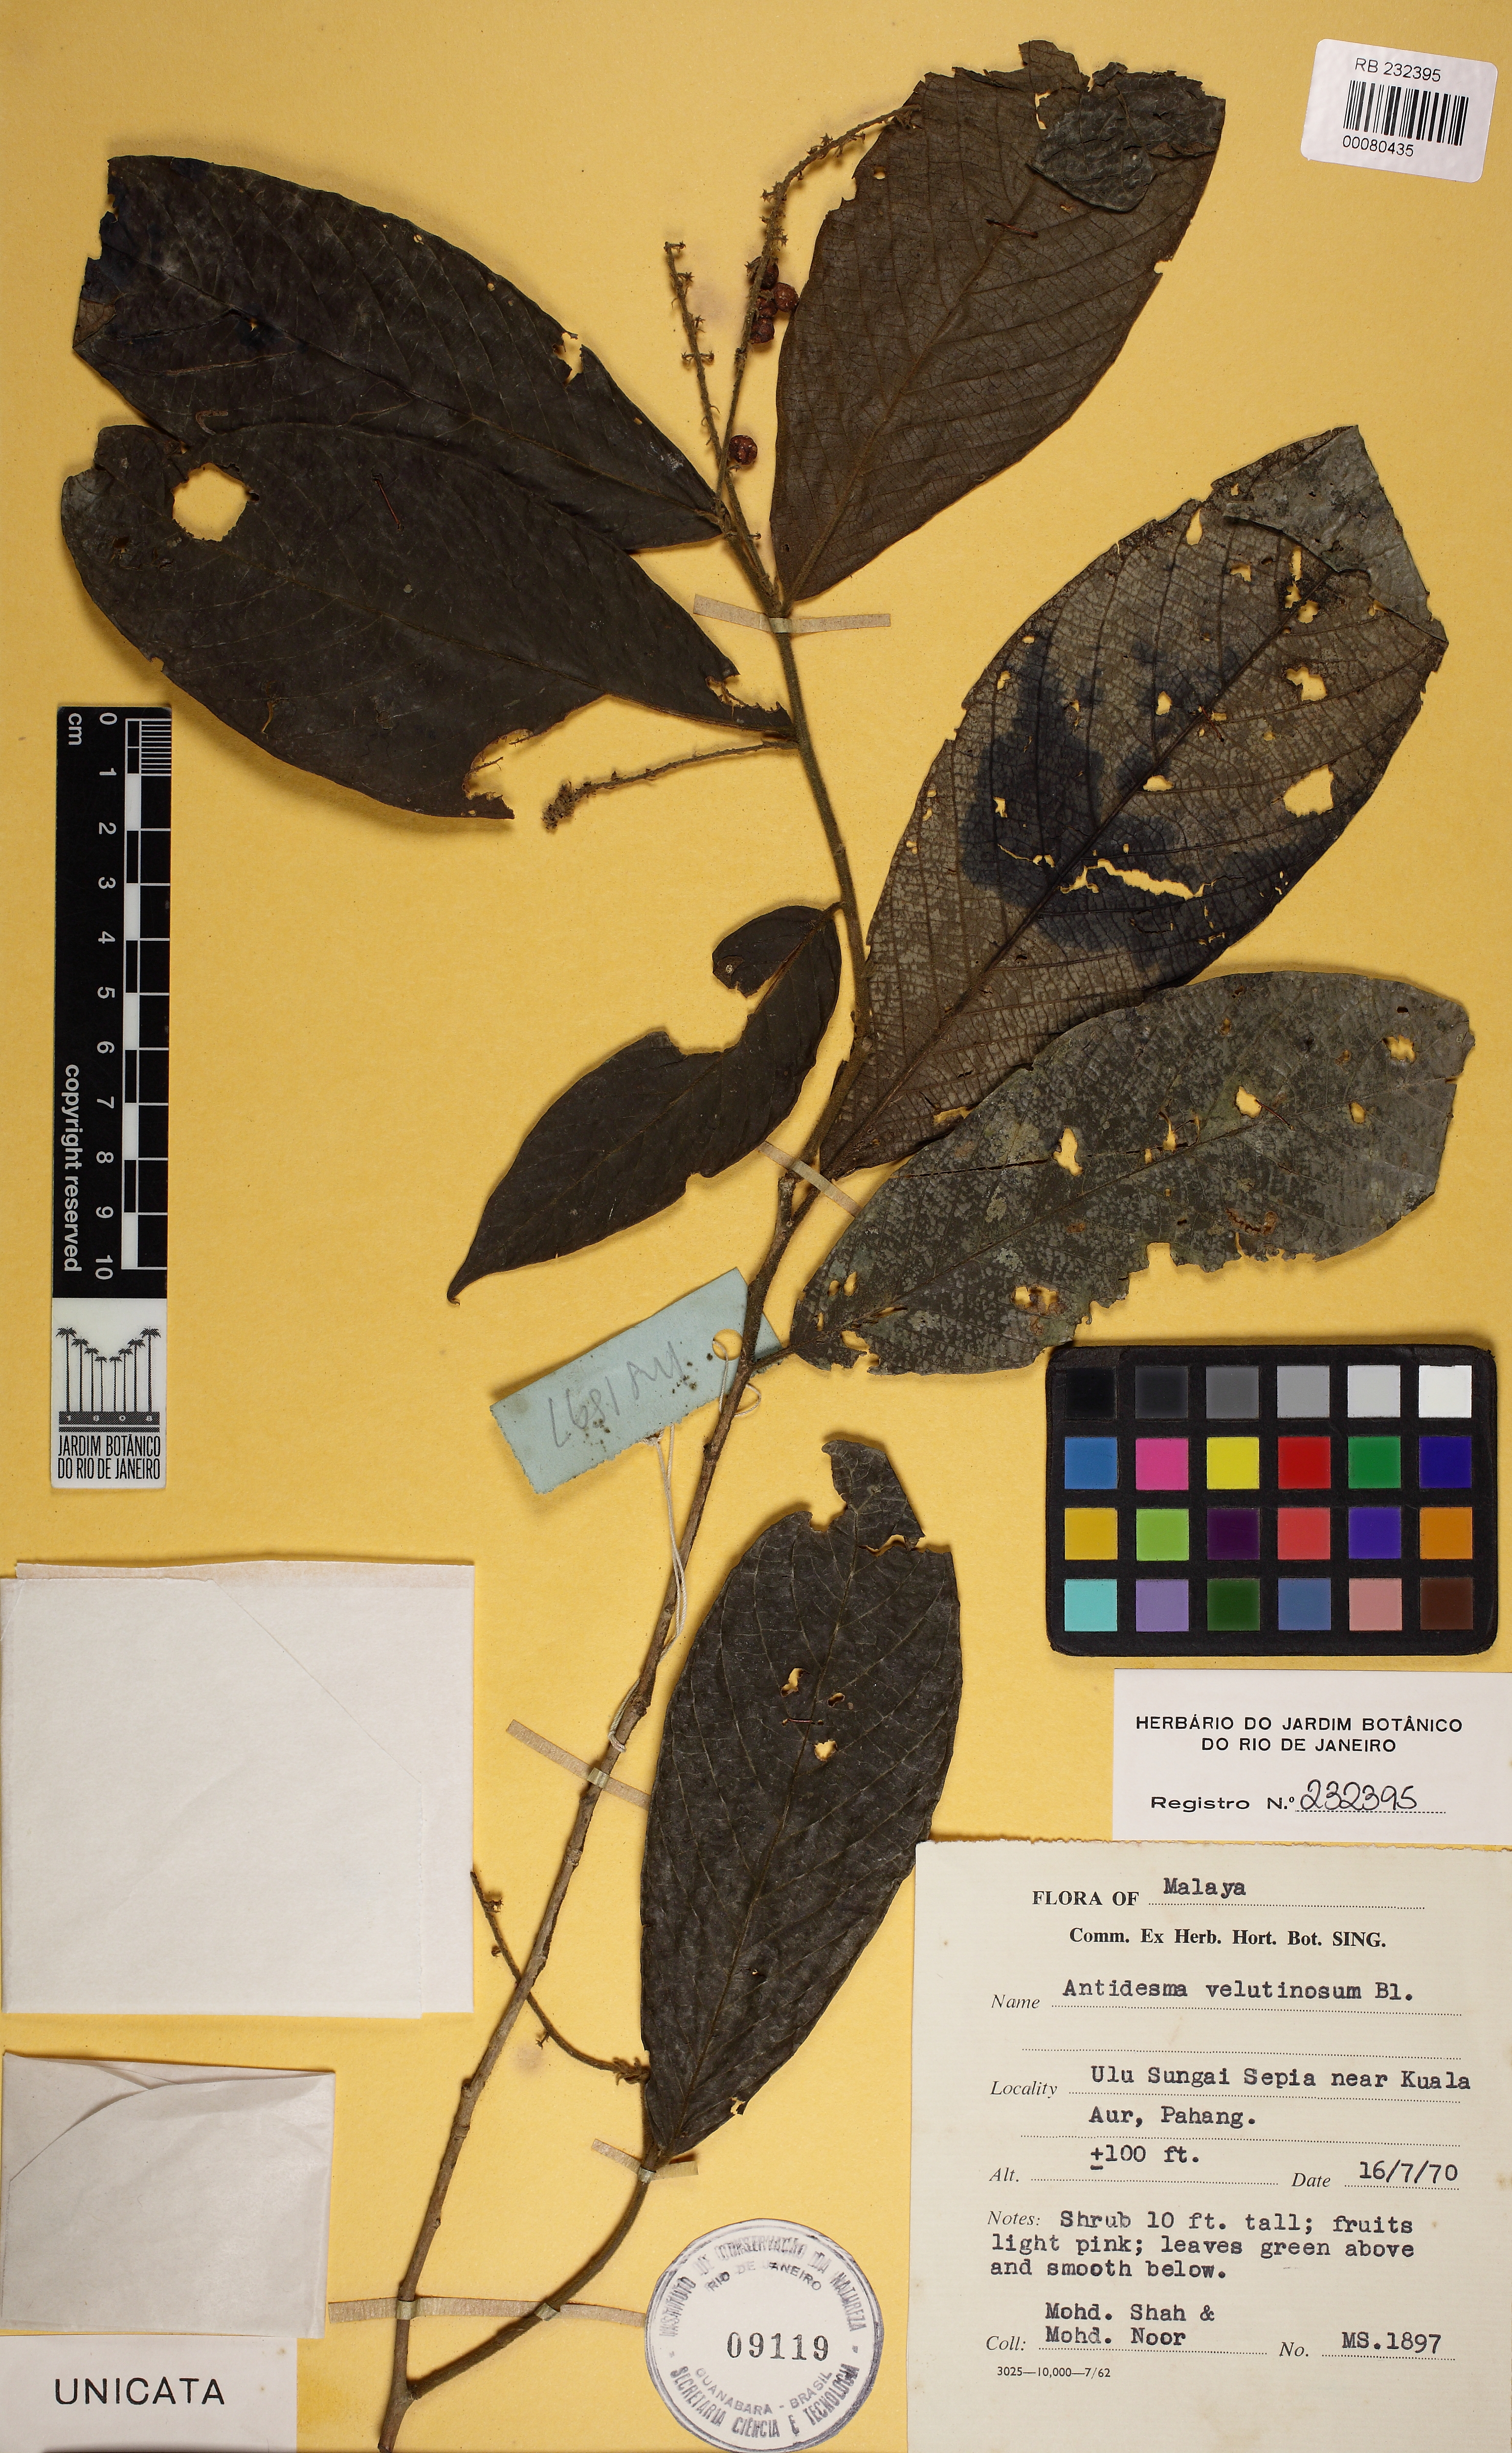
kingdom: Plantae
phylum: Tracheophyta
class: Magnoliopsida
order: Malpighiales
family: Phyllanthaceae
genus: Antidesma
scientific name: Antidesma velutinosum
